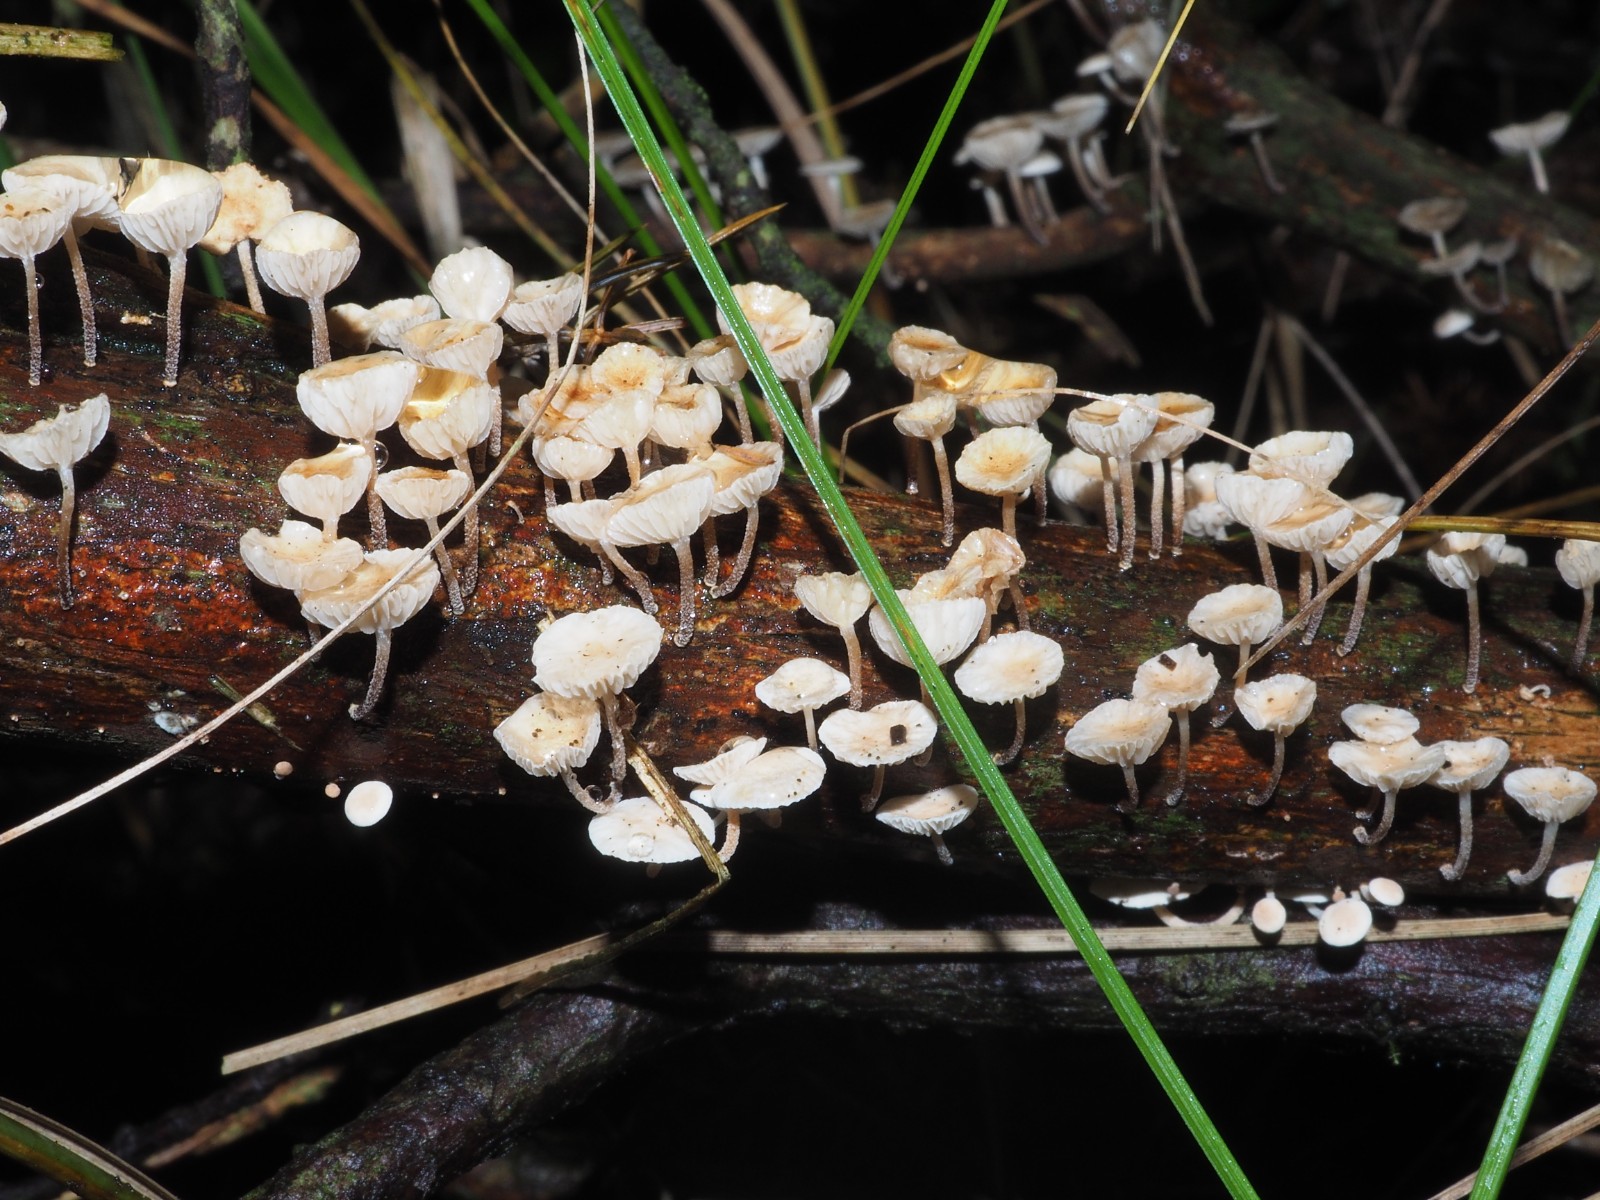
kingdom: Fungi
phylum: Basidiomycota
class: Agaricomycetes
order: Agaricales
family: Omphalotaceae
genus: Collybiopsis
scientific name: Collybiopsis ramealis
